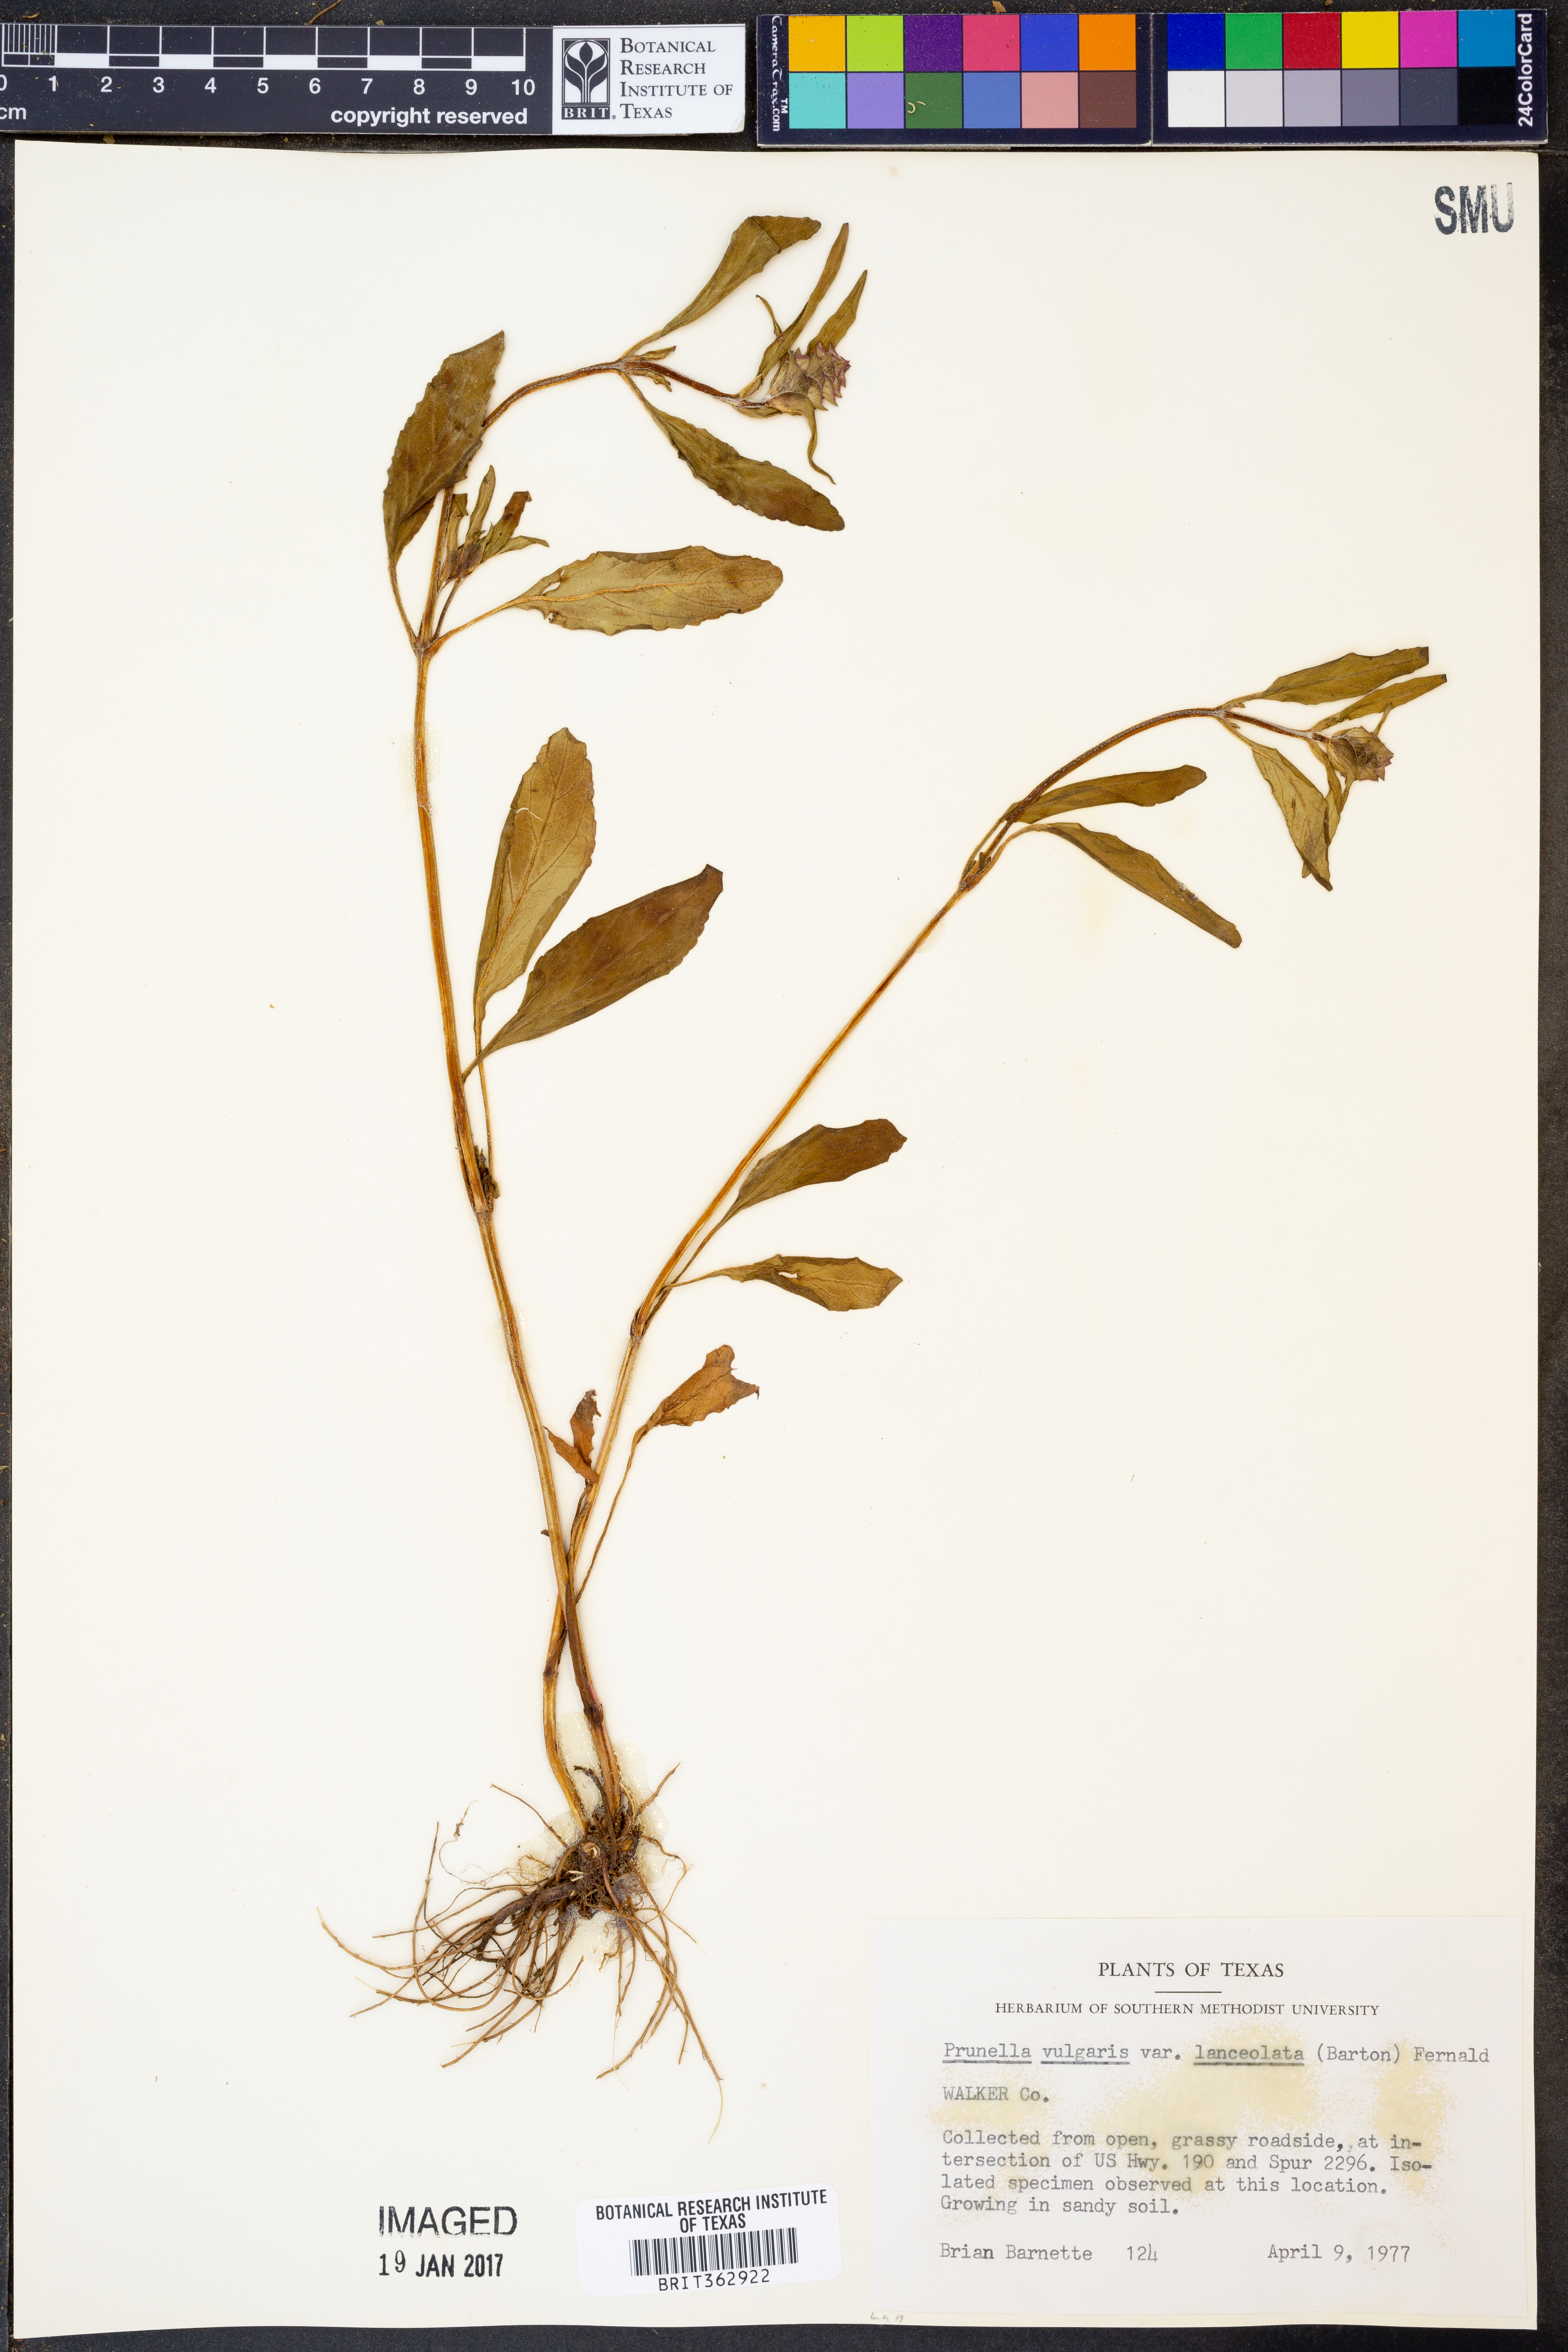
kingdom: Plantae
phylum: Tracheophyta
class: Magnoliopsida
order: Lamiales
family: Lamiaceae
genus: Prunella
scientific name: Prunella vulgaris
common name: Heal-all
